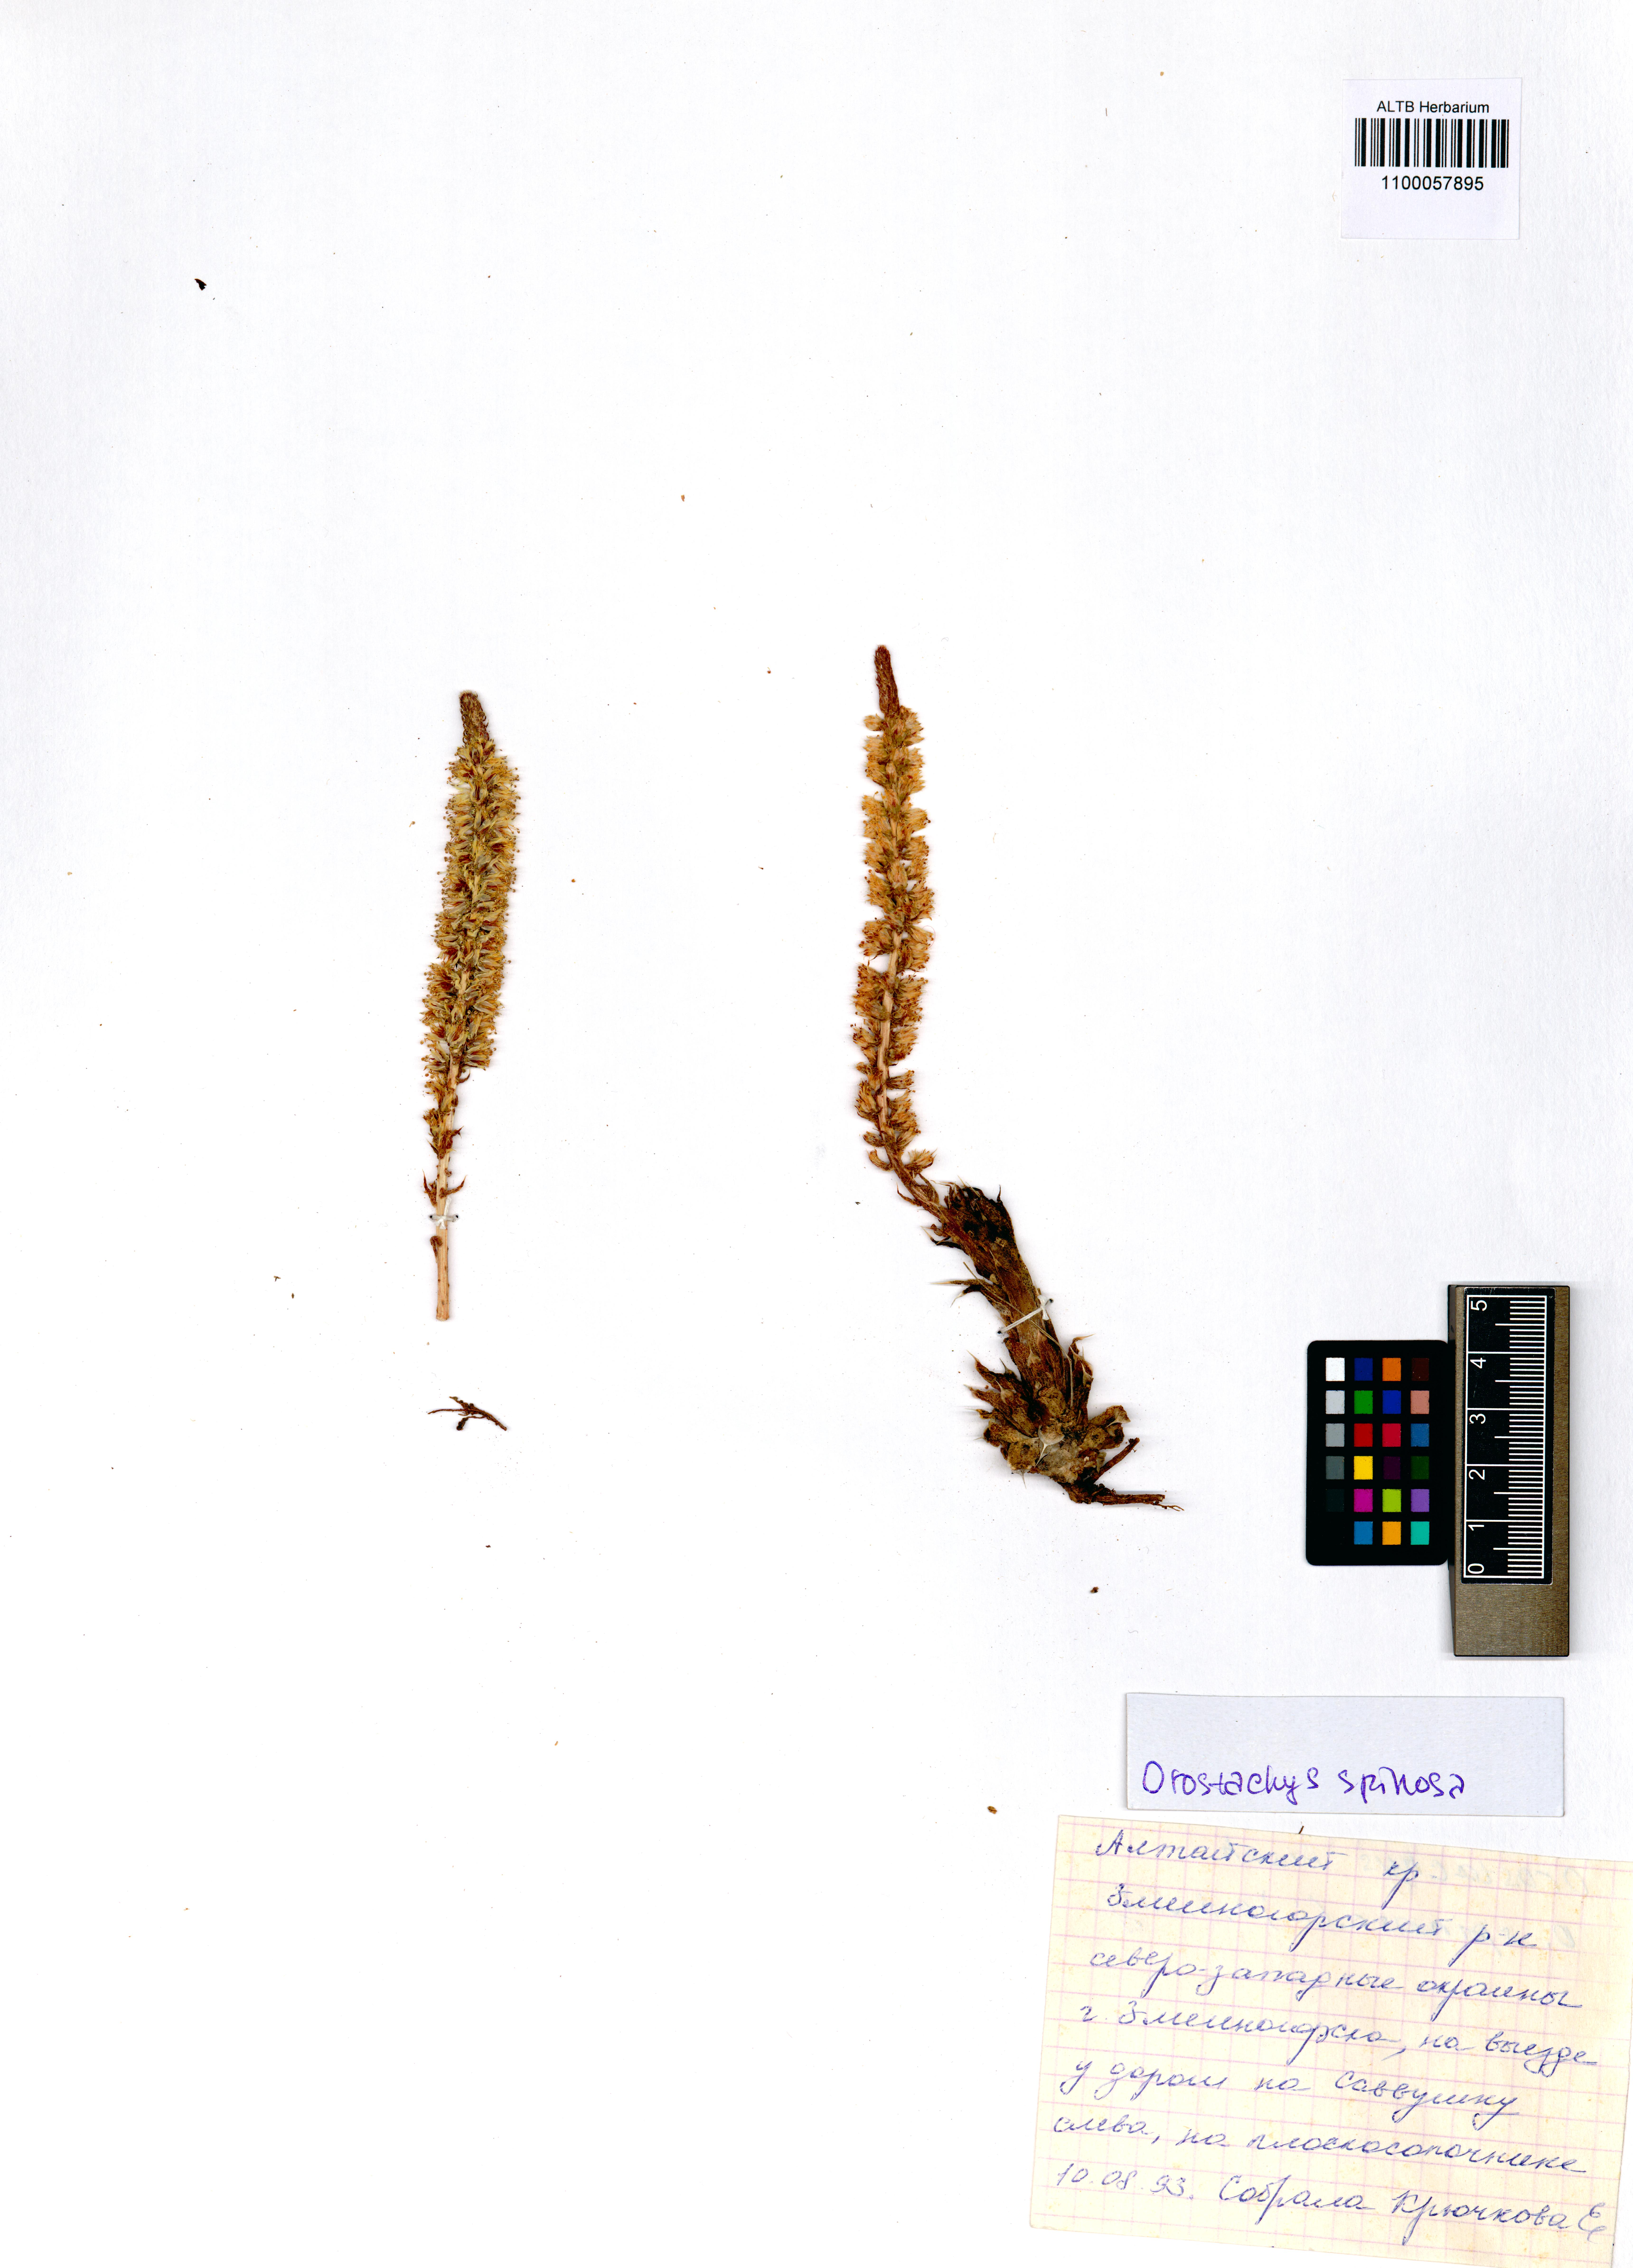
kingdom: Plantae
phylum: Tracheophyta
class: Magnoliopsida
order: Saxifragales
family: Crassulaceae
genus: Orostachys
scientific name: Orostachys spinosa
